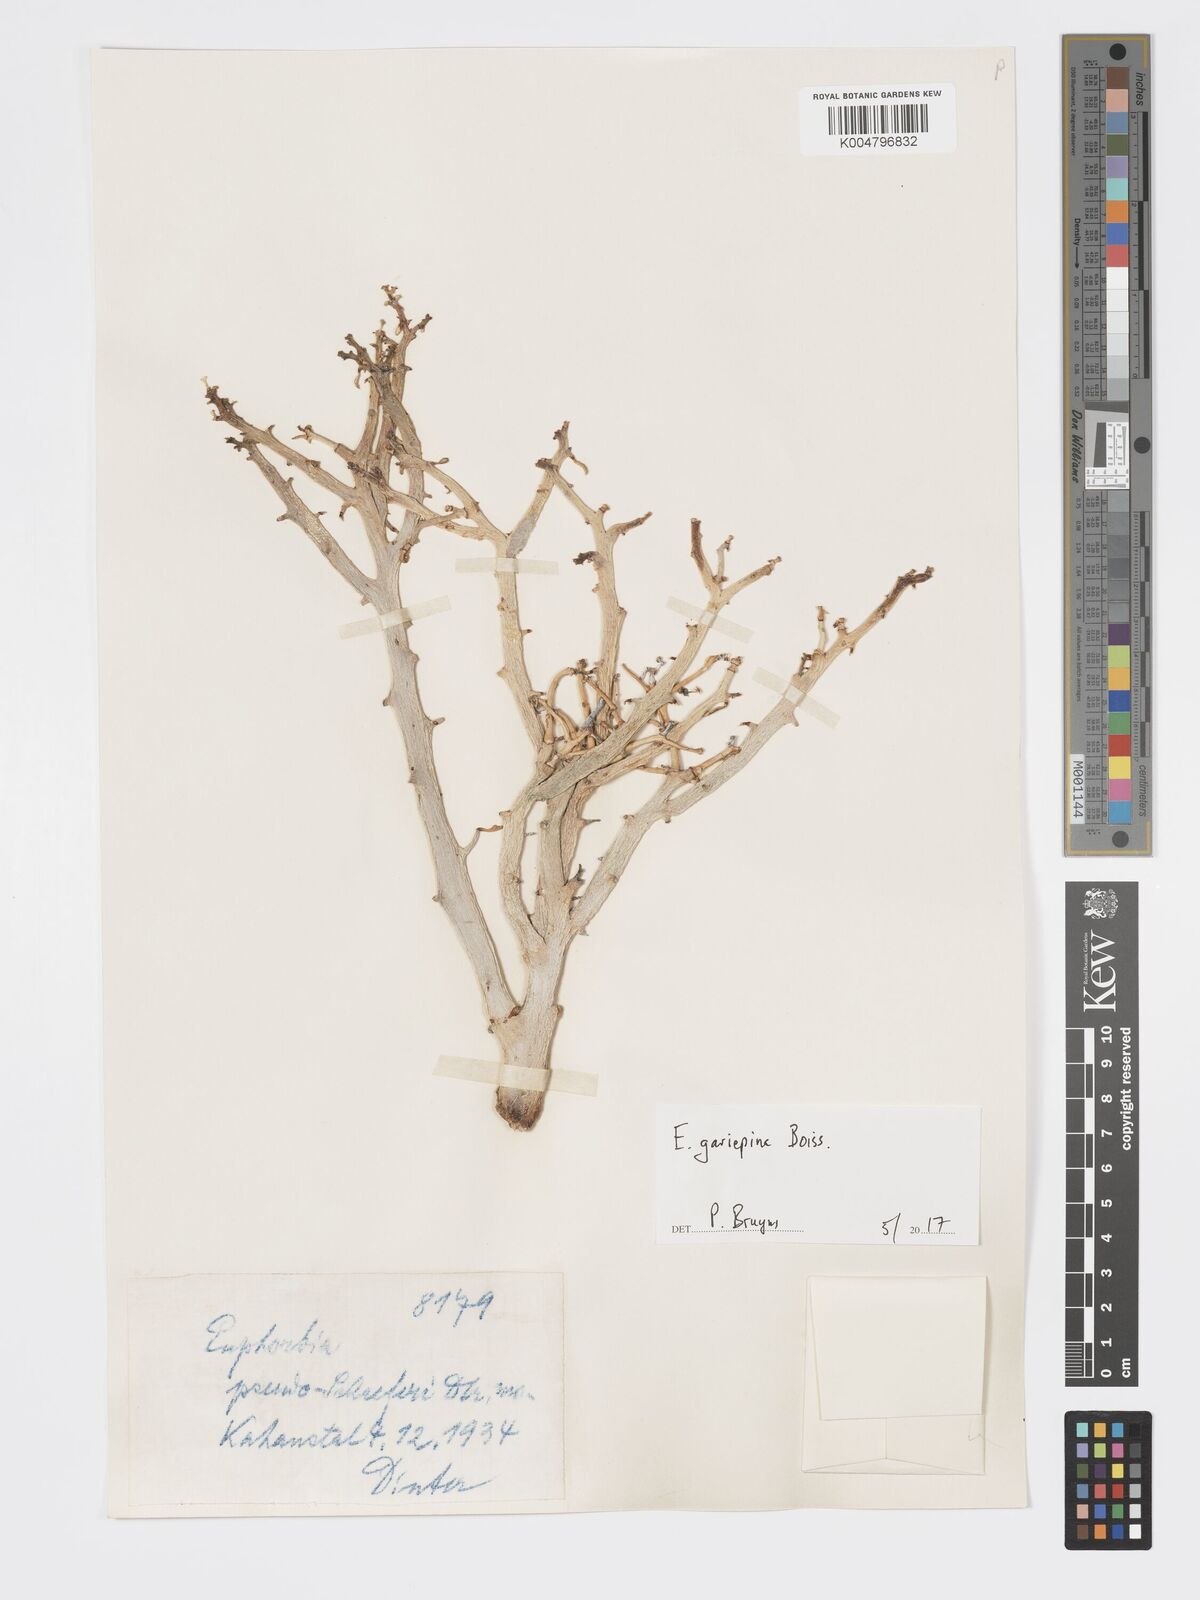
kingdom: Plantae
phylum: Tracheophyta
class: Magnoliopsida
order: Malpighiales
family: Euphorbiaceae
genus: Euphorbia
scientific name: Euphorbia gariepina
